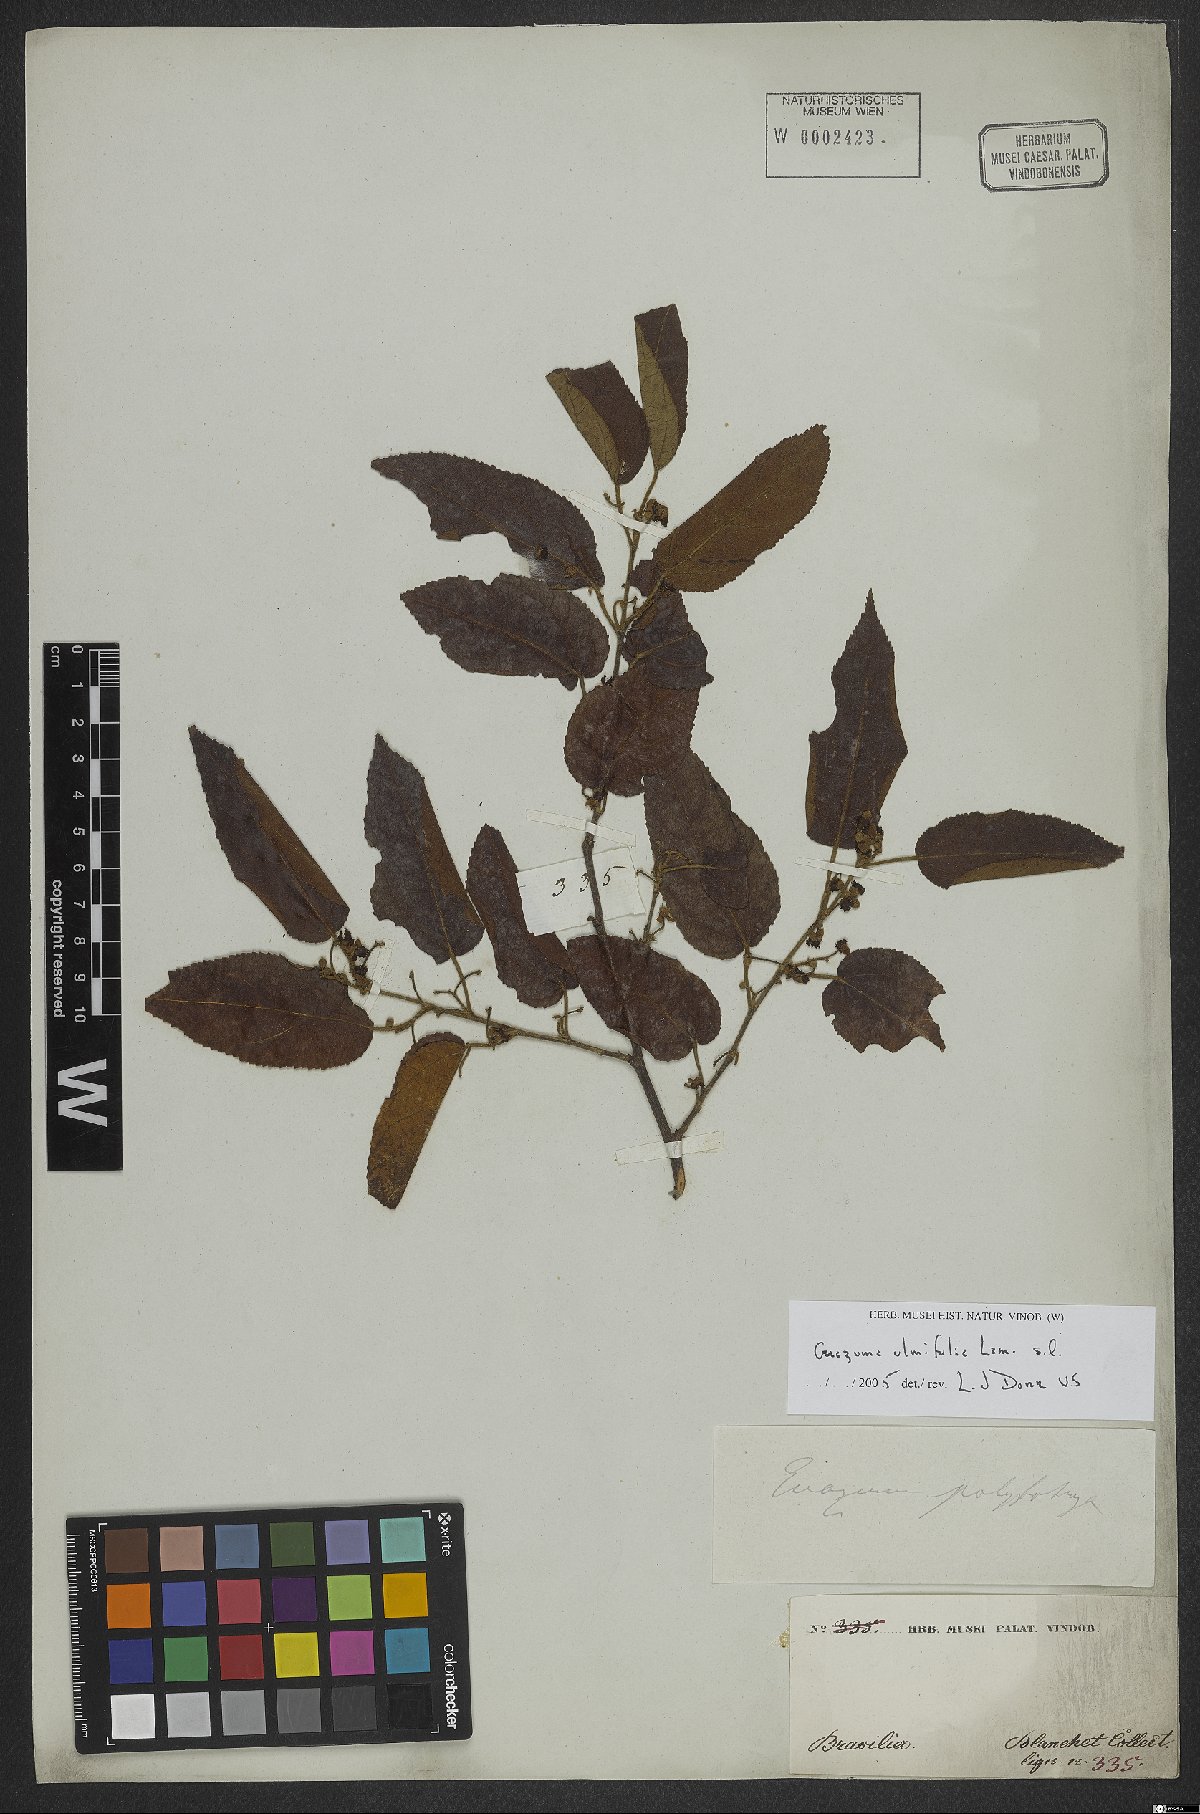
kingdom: Plantae
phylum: Tracheophyta
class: Magnoliopsida
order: Malvales
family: Malvaceae
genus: Guazuma
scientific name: Guazuma ulmifolia
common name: Bastard-cedar
